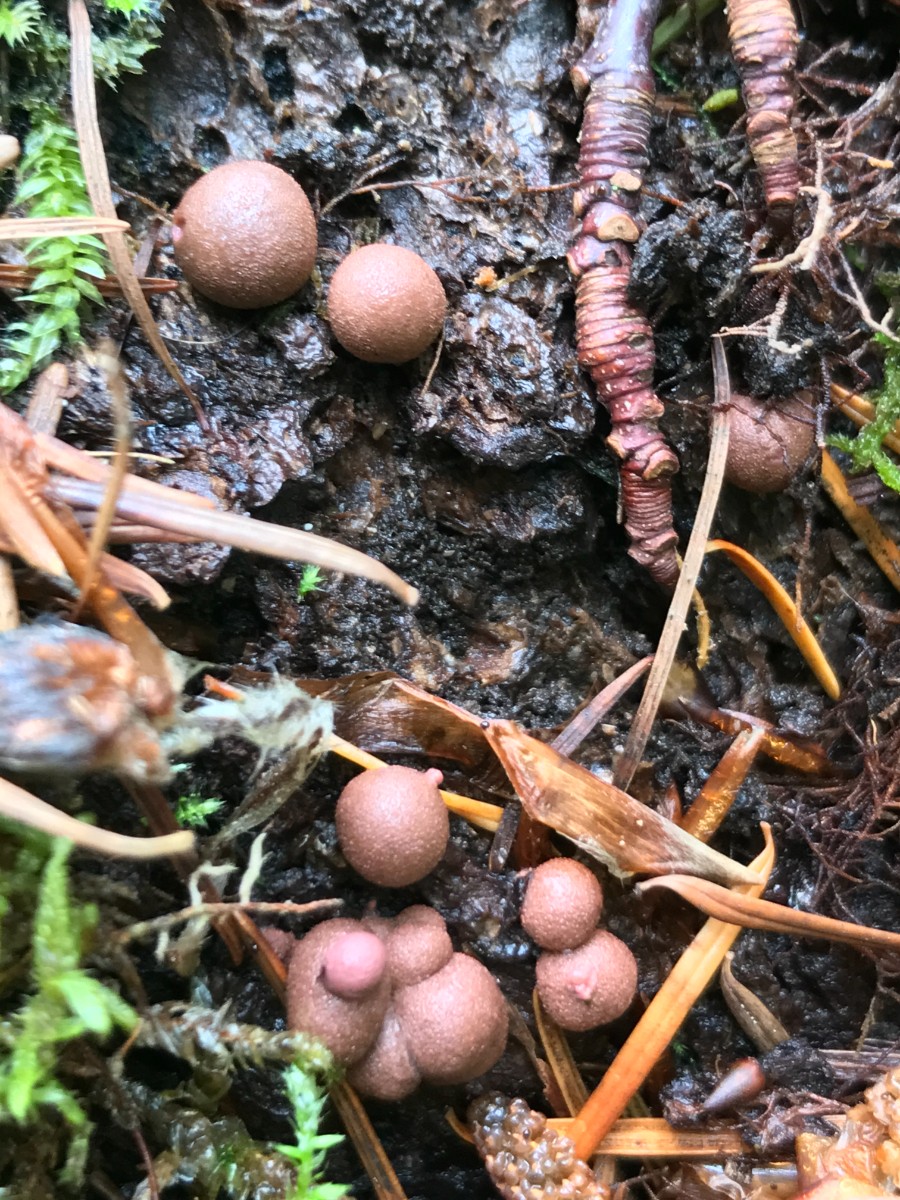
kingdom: Protozoa
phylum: Mycetozoa
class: Myxomycetes
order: Cribrariales
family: Tubiferaceae
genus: Lycogala
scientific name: Lycogala epidendrum
